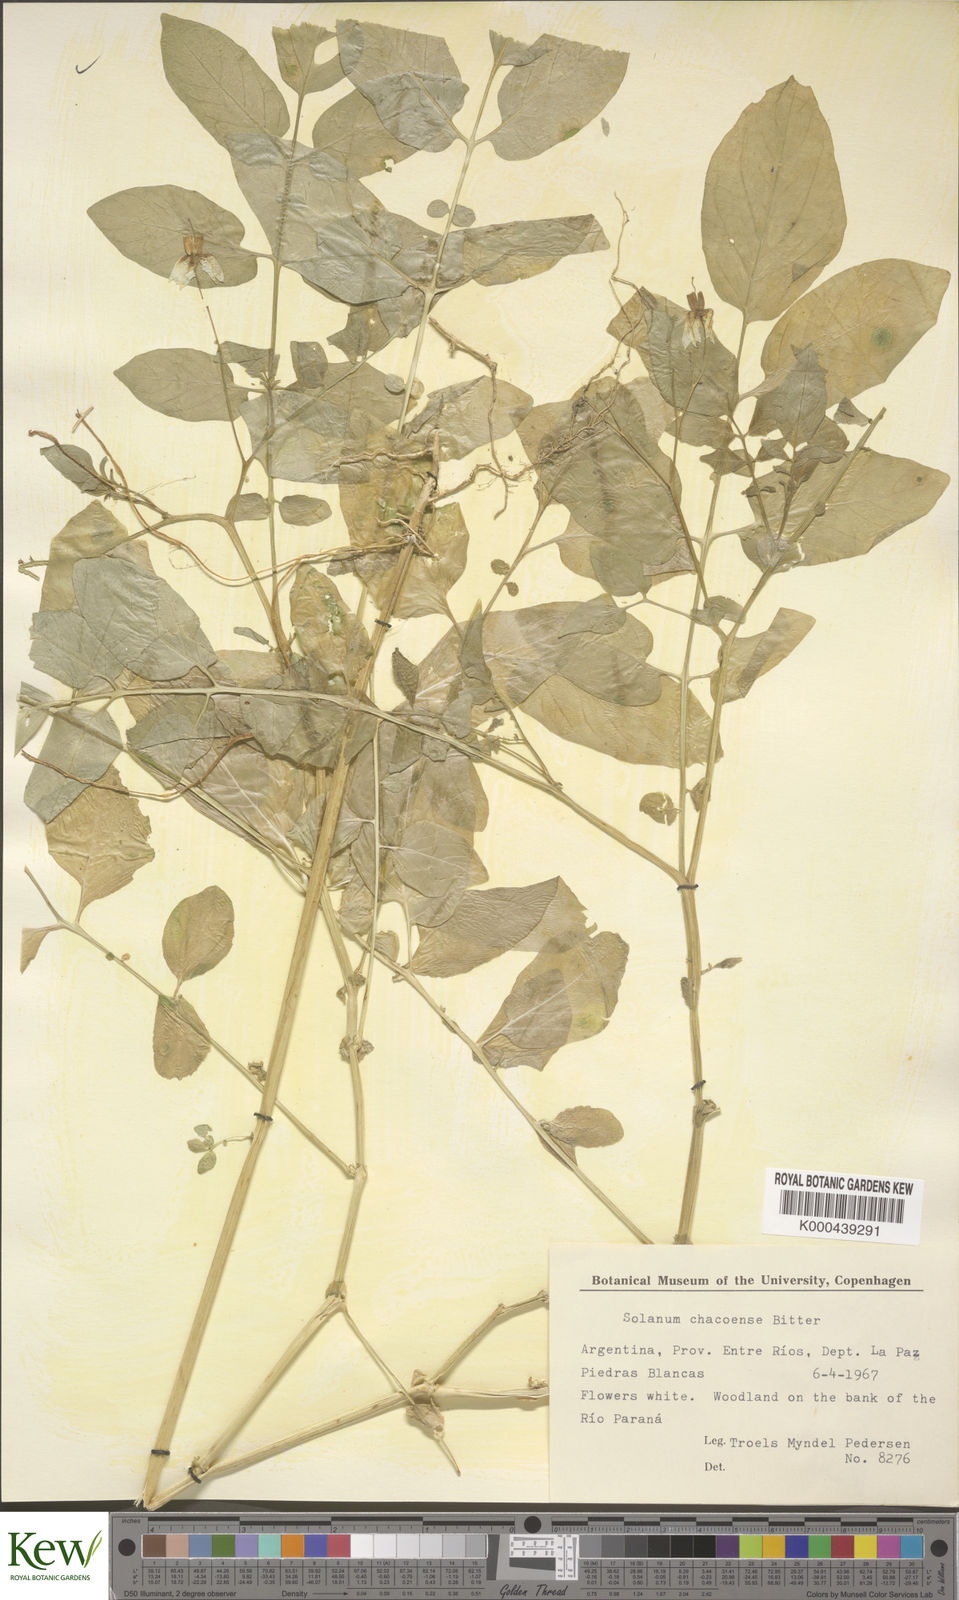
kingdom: Plantae
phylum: Tracheophyta
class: Magnoliopsida
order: Solanales
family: Solanaceae
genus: Solanum
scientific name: Solanum chacoense
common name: Chaco potato
